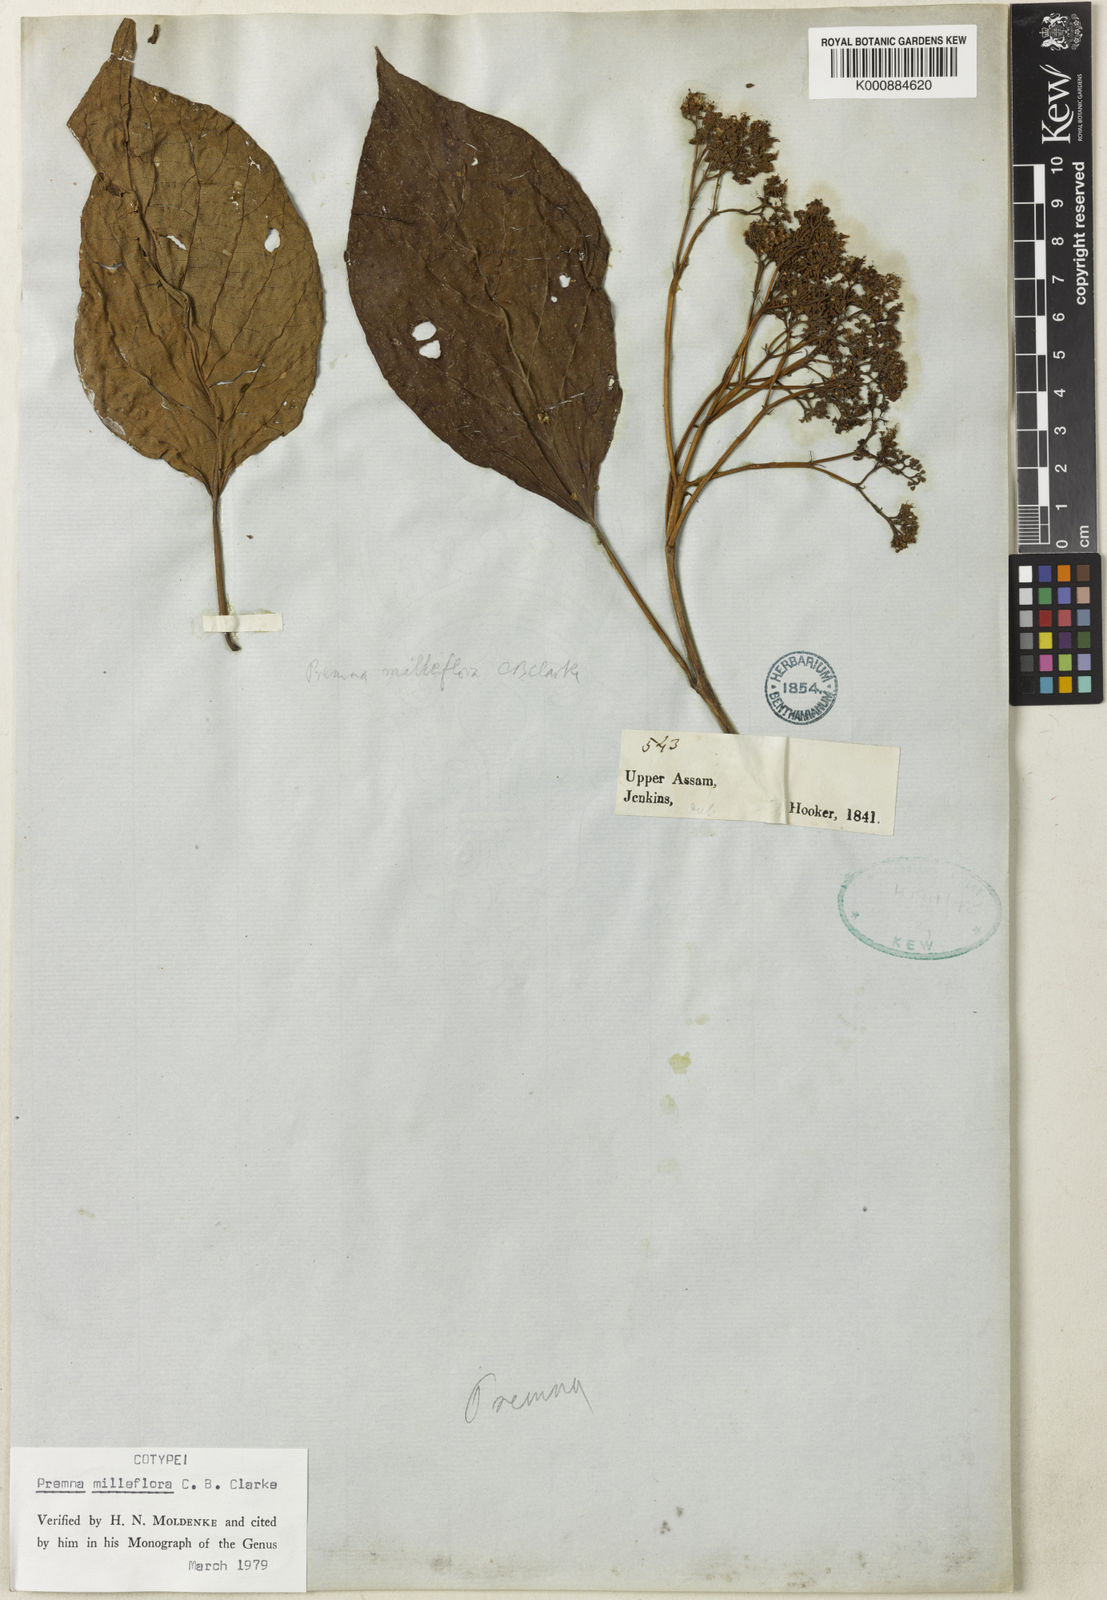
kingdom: Plantae
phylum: Tracheophyta
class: Magnoliopsida
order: Lamiales
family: Lamiaceae
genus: Premna
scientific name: Premna milleflora
